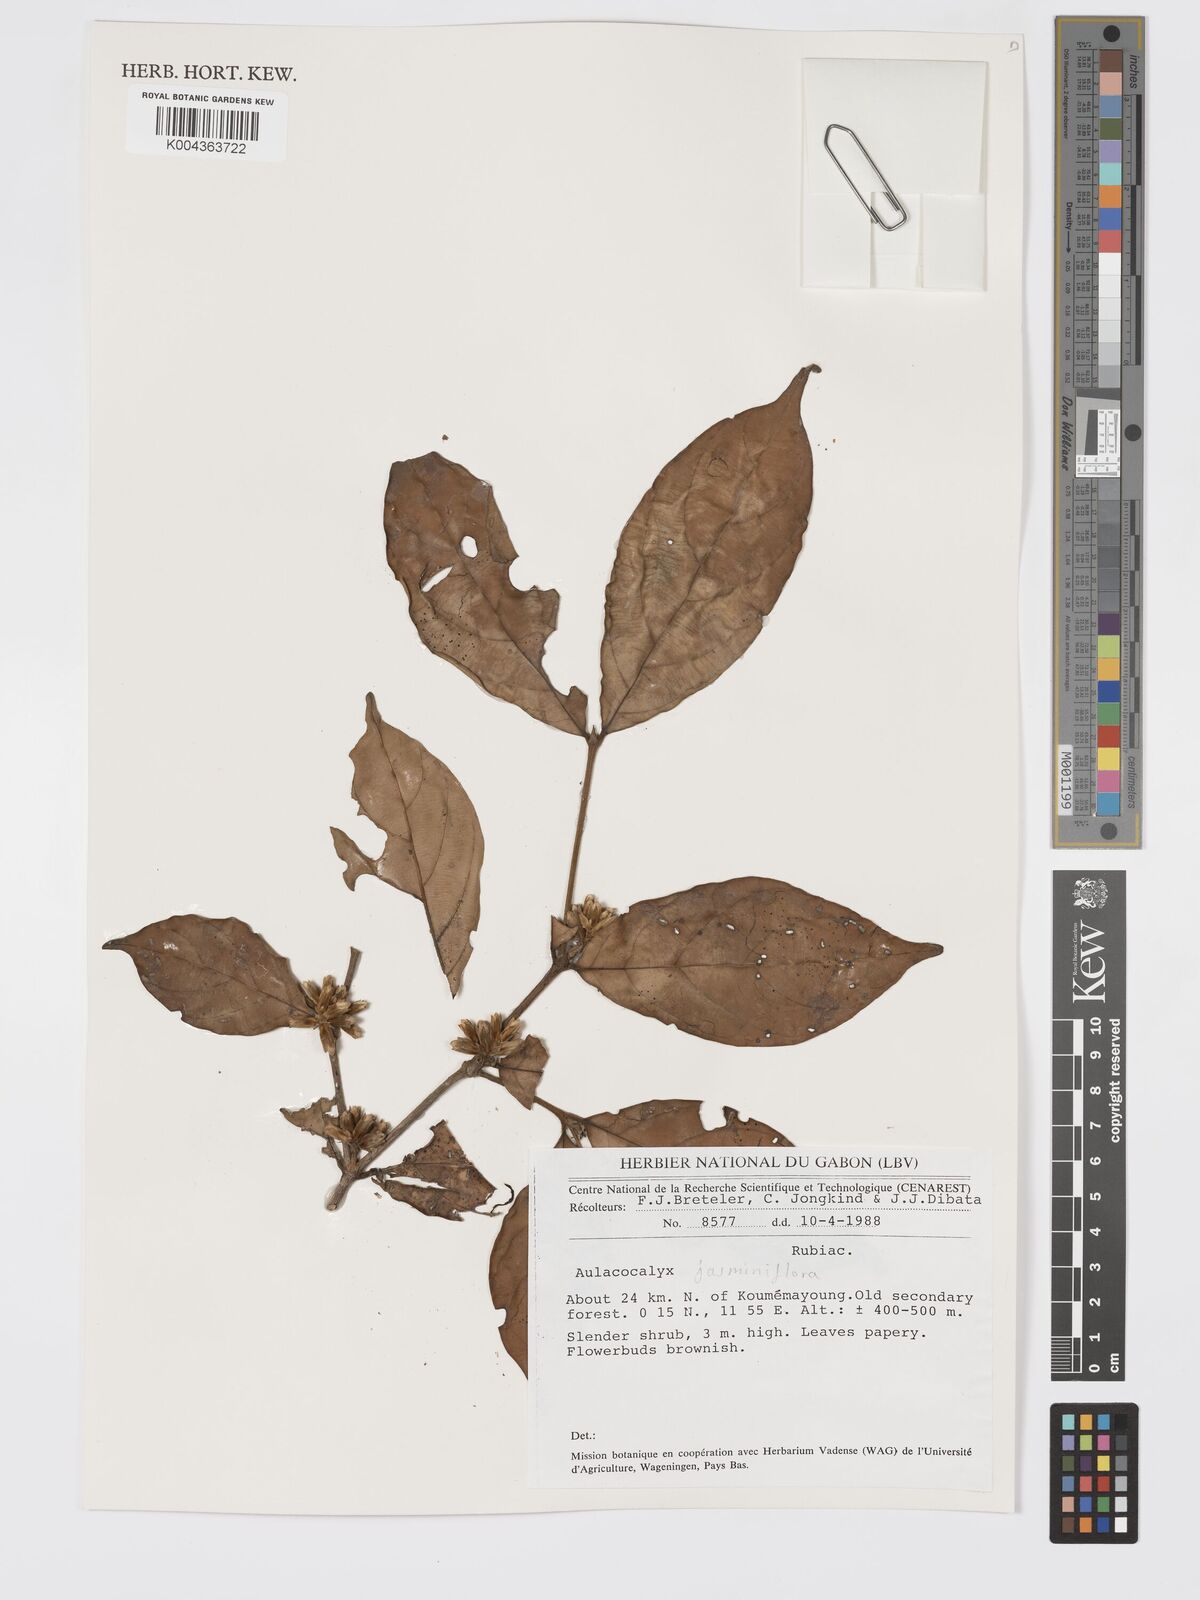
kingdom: Plantae
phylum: Tracheophyta
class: Magnoliopsida
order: Gentianales
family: Rubiaceae
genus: Aulacocalyx
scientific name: Aulacocalyx jasminiflora
